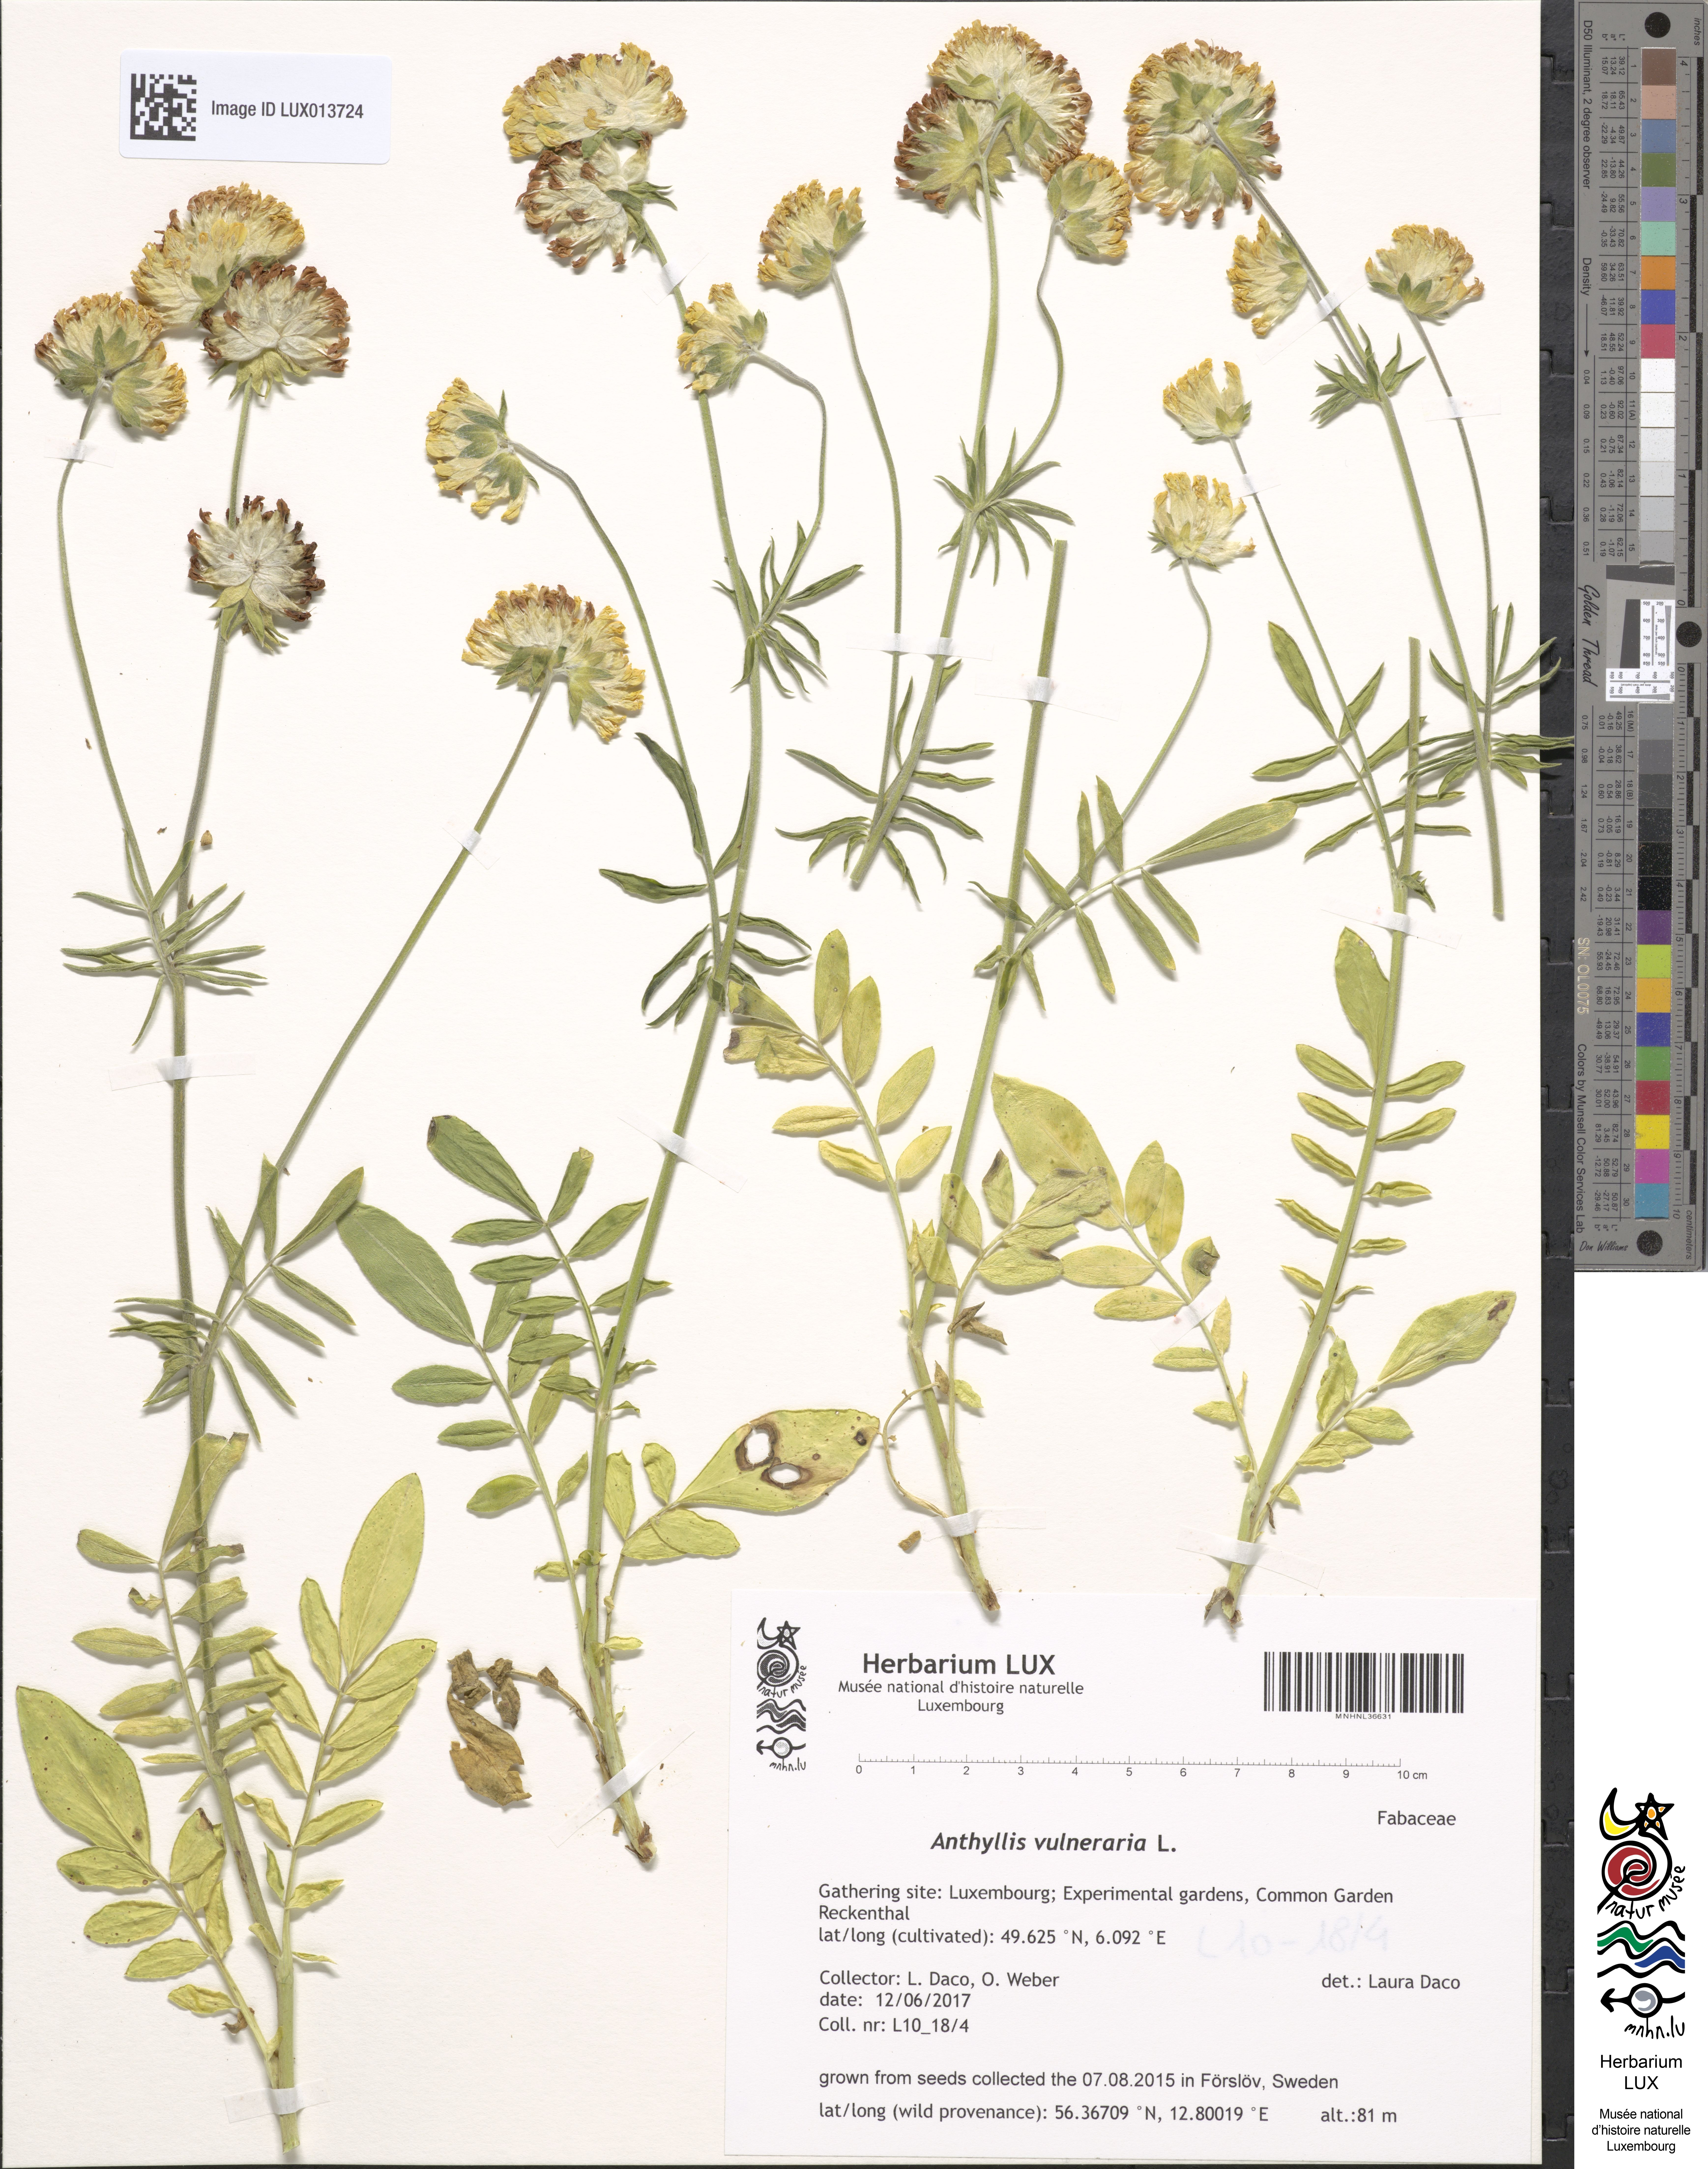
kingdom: Plantae
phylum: Tracheophyta
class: Magnoliopsida
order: Fabales
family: Fabaceae
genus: Anthyllis
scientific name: Anthyllis vulneraria
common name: Kidney vetch
